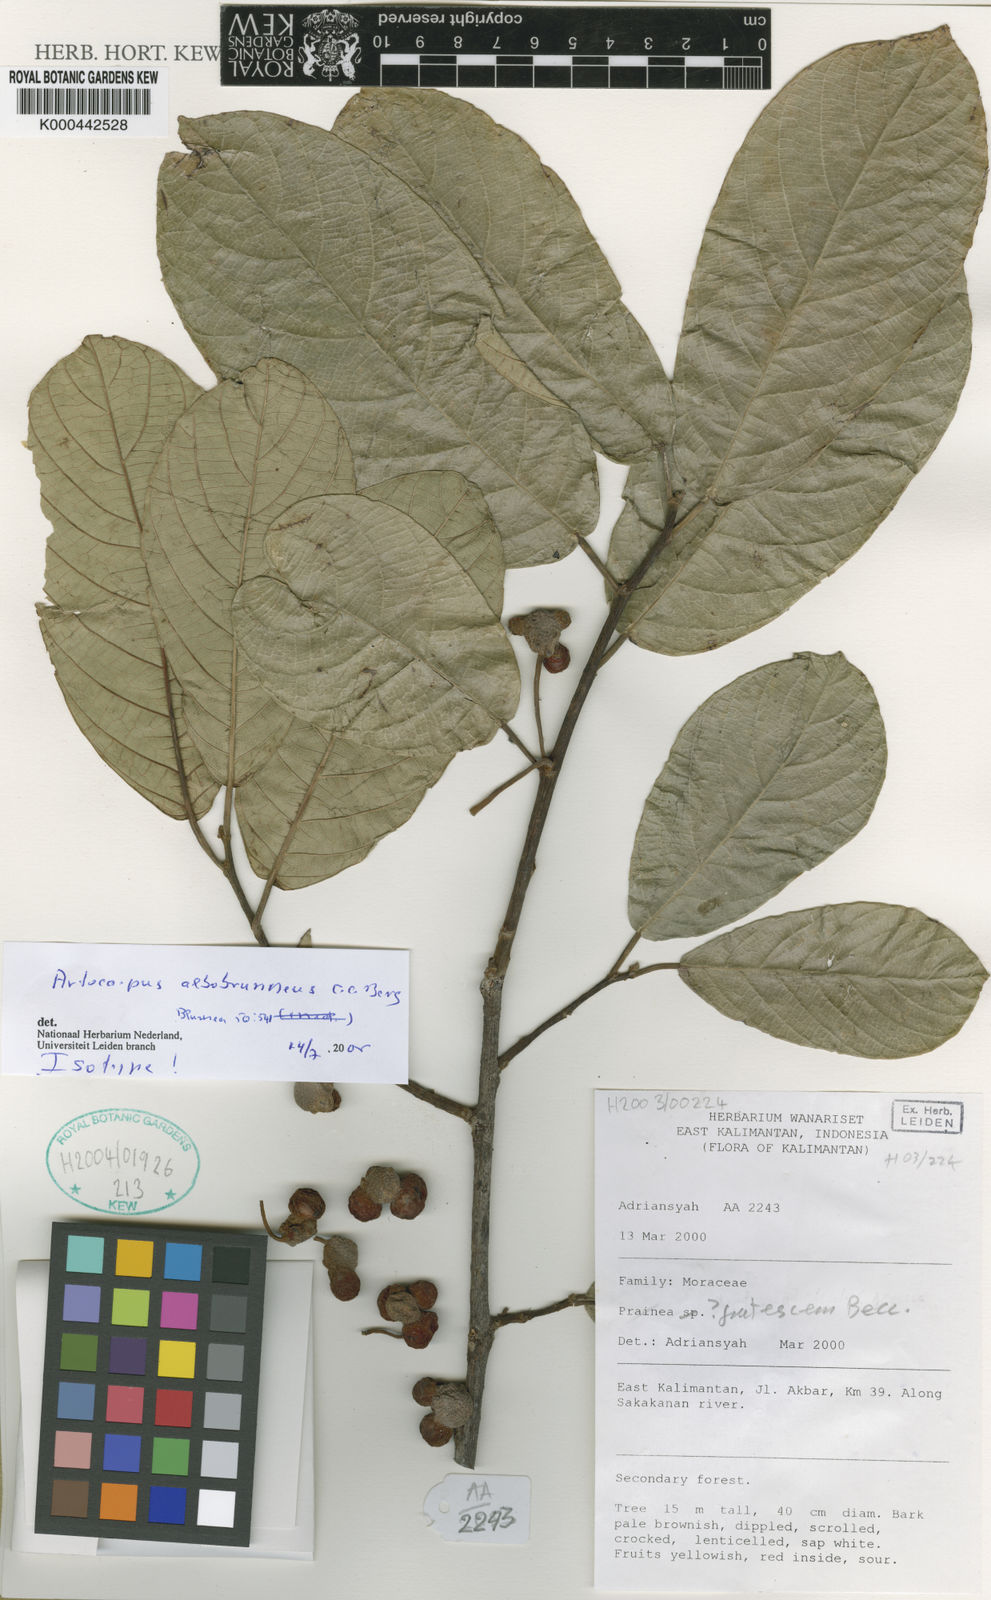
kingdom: Plantae
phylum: Tracheophyta
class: Magnoliopsida
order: Rosales
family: Moraceae
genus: Artocarpus
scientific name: Artocarpus albobrunneus
